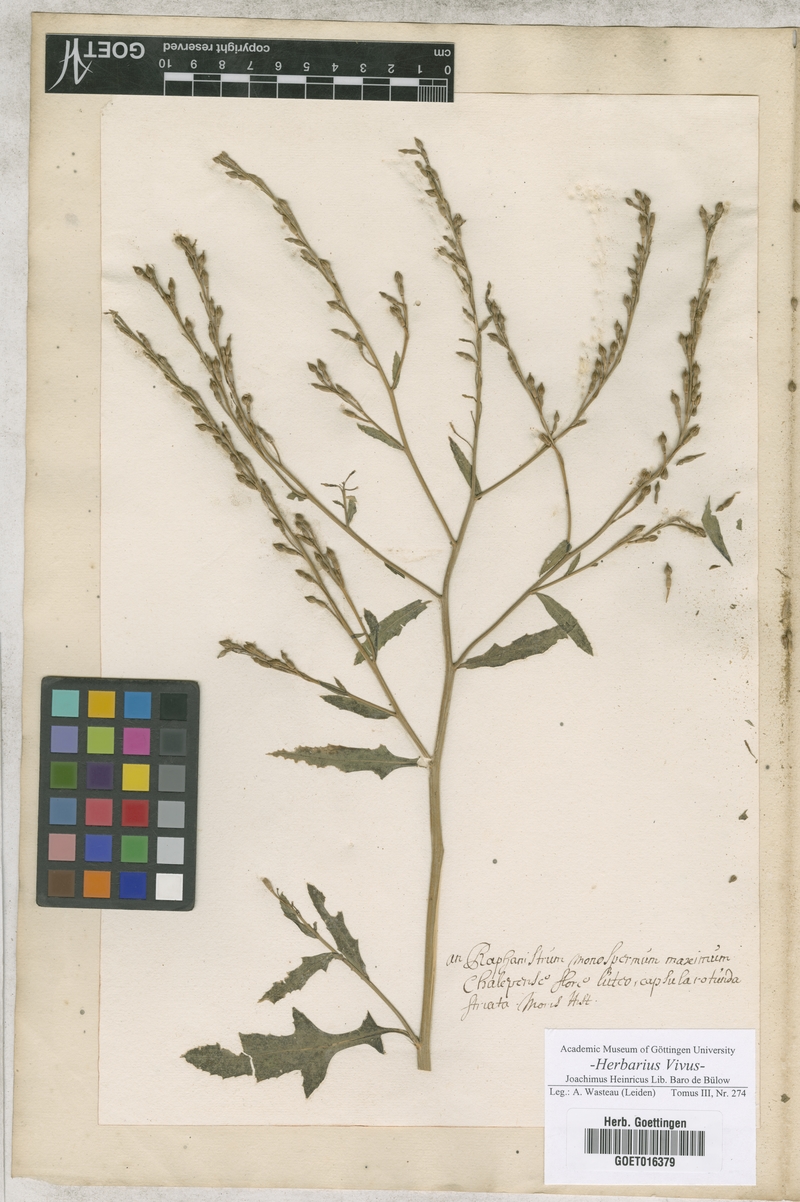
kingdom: Plantae
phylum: Tracheophyta
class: Magnoliopsida
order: Brassicales
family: Brassicaceae
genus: Raphanistrum
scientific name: Raphanistrum
